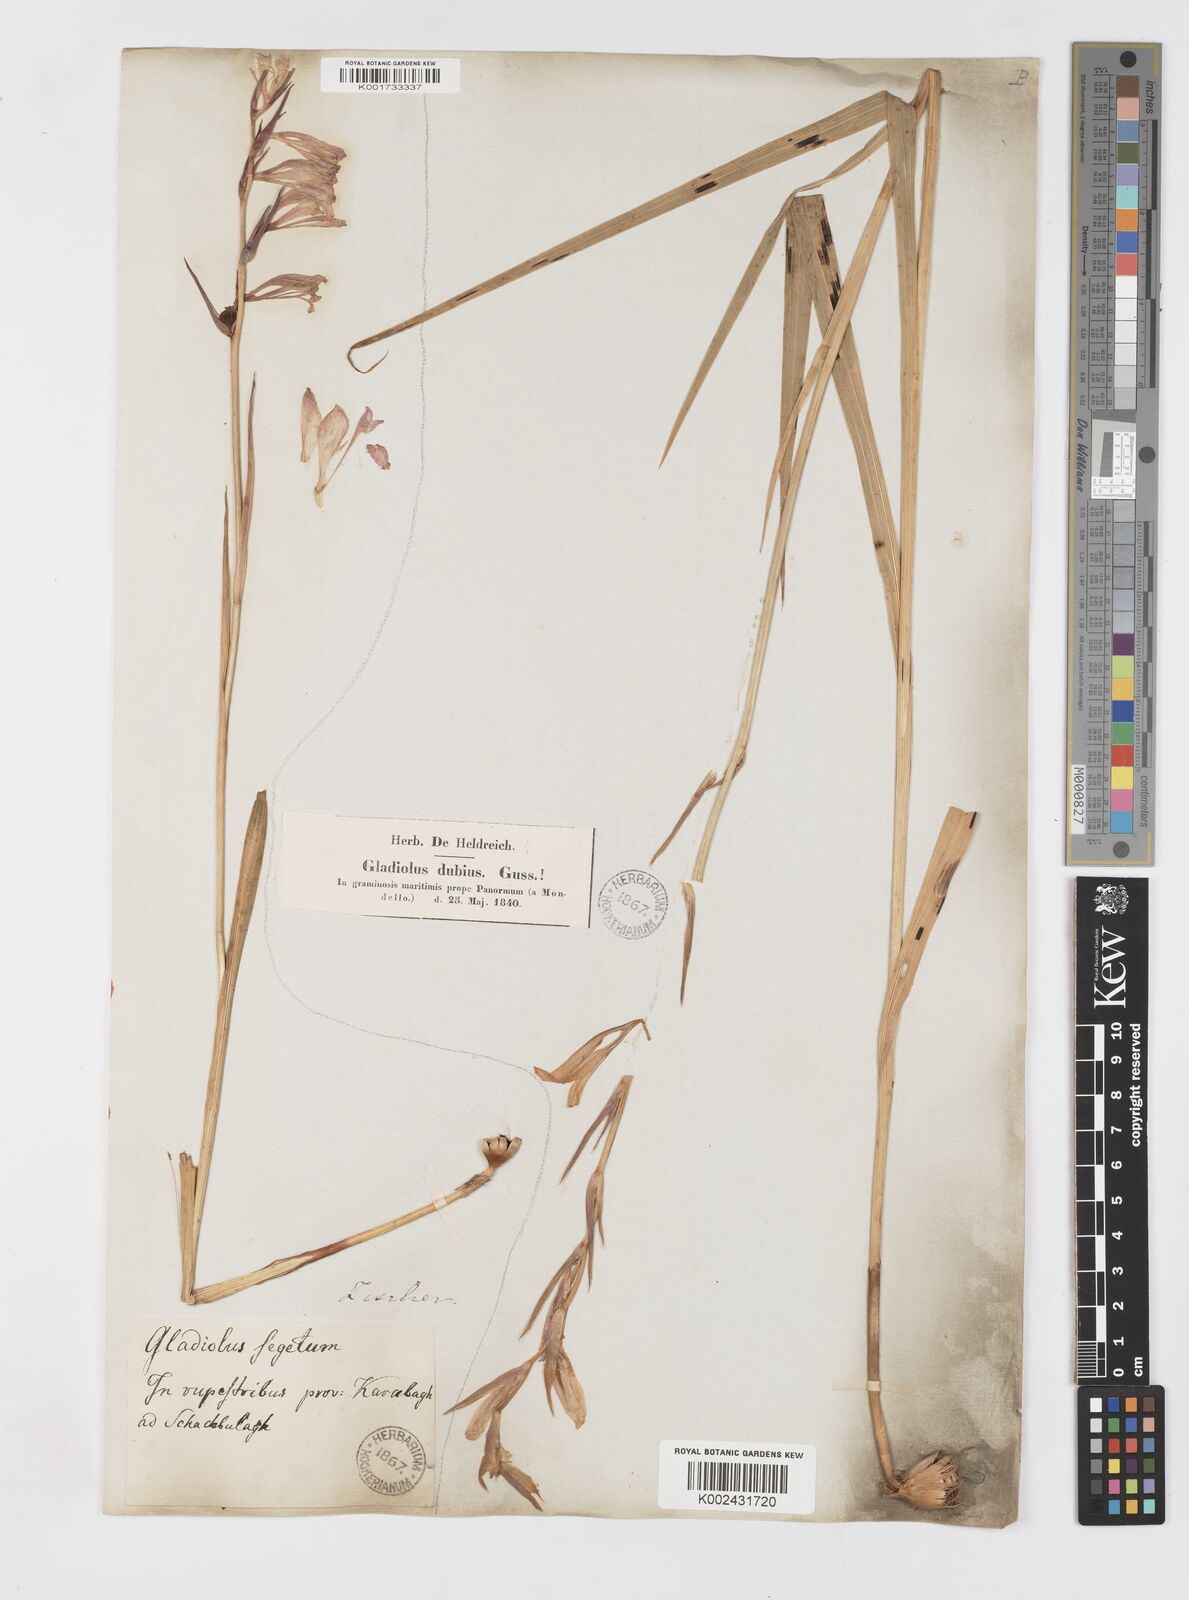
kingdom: Plantae
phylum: Tracheophyta
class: Liliopsida
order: Asparagales
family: Iridaceae
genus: Gladiolus
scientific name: Gladiolus italicus
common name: Field gladiolus
